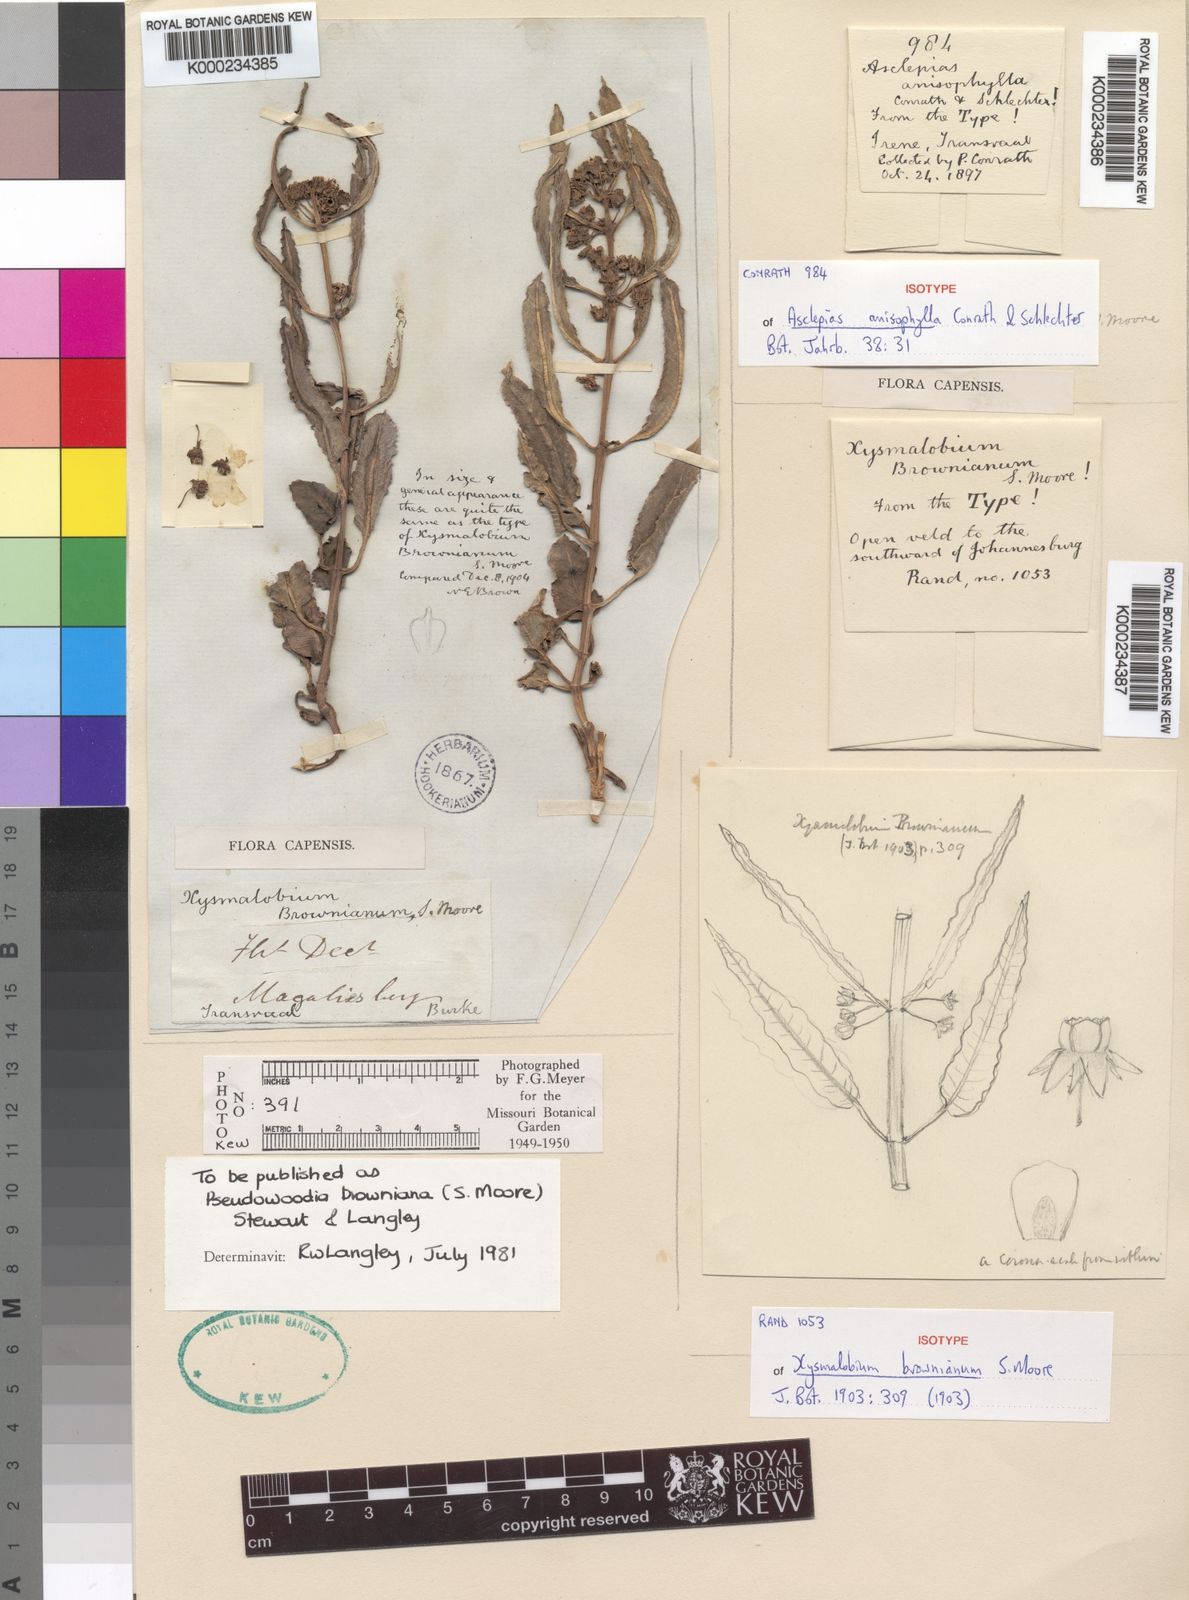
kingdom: Plantae
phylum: Tracheophyta
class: Magnoliopsida
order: Gentianales
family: Asclepiadaceae
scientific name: Asclepiadaceae
